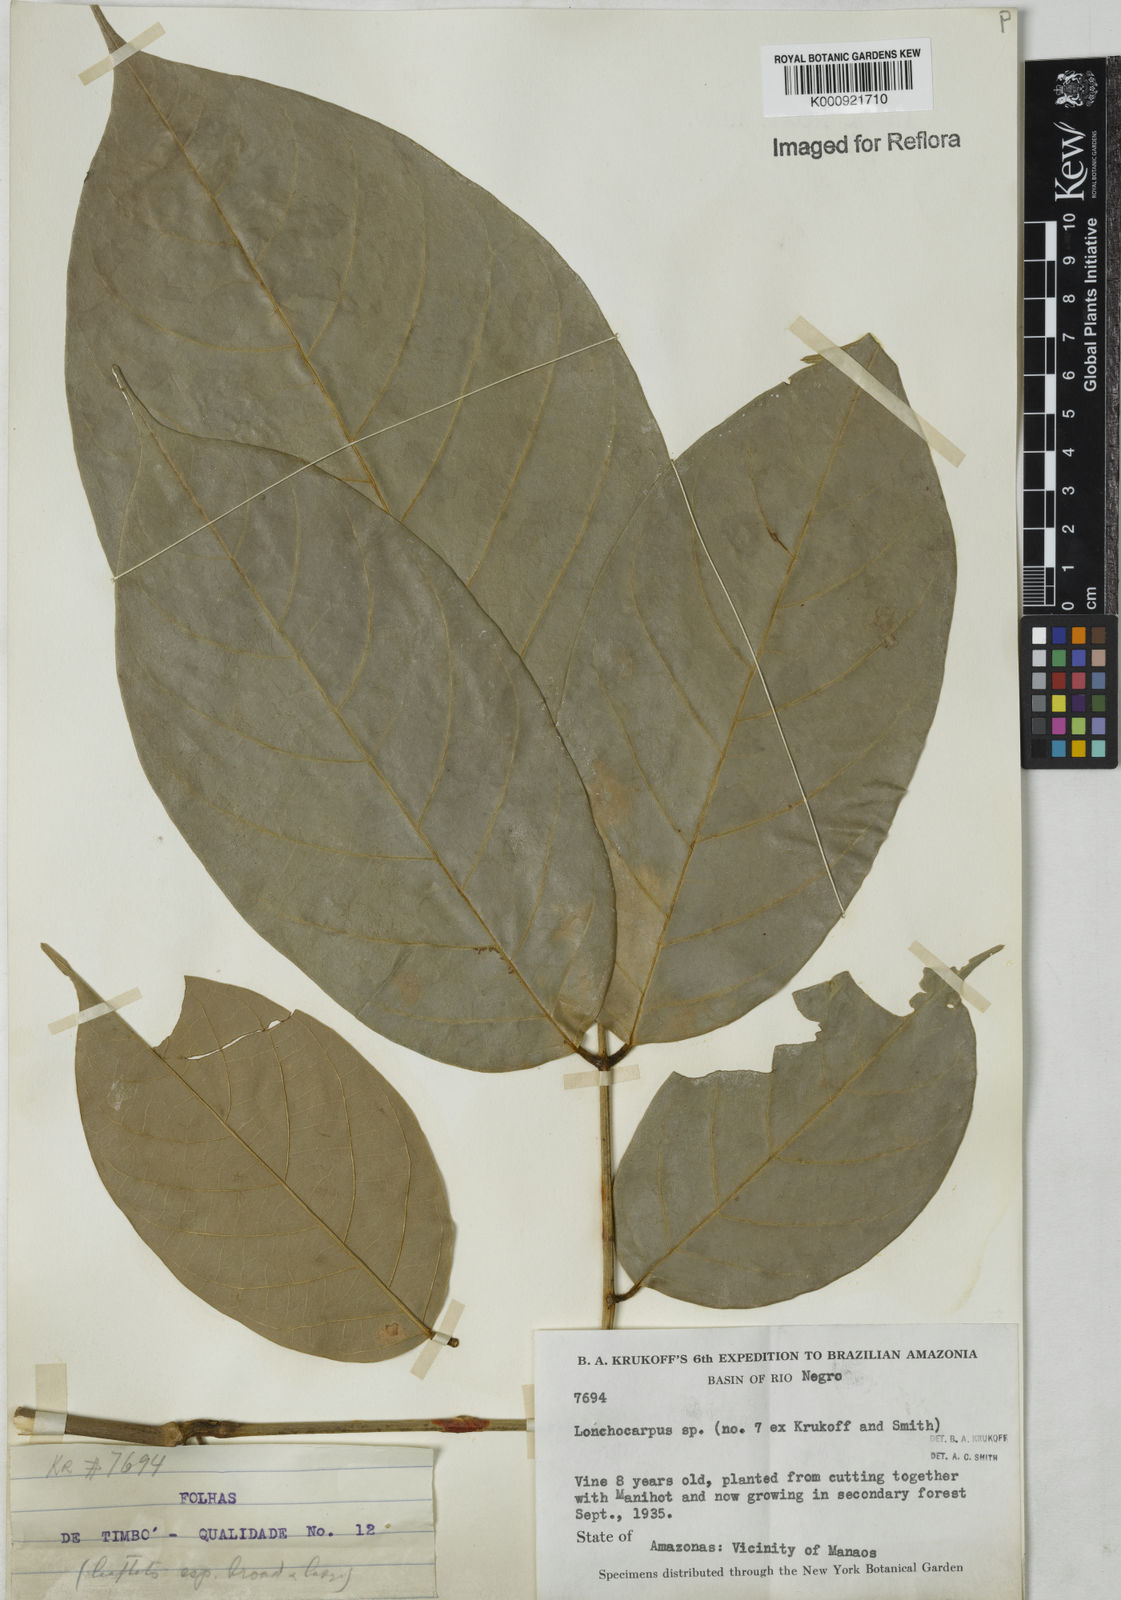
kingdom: Plantae
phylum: Tracheophyta
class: Magnoliopsida
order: Fabales
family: Fabaceae
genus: Lonchocarpus
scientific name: Lonchocarpus
